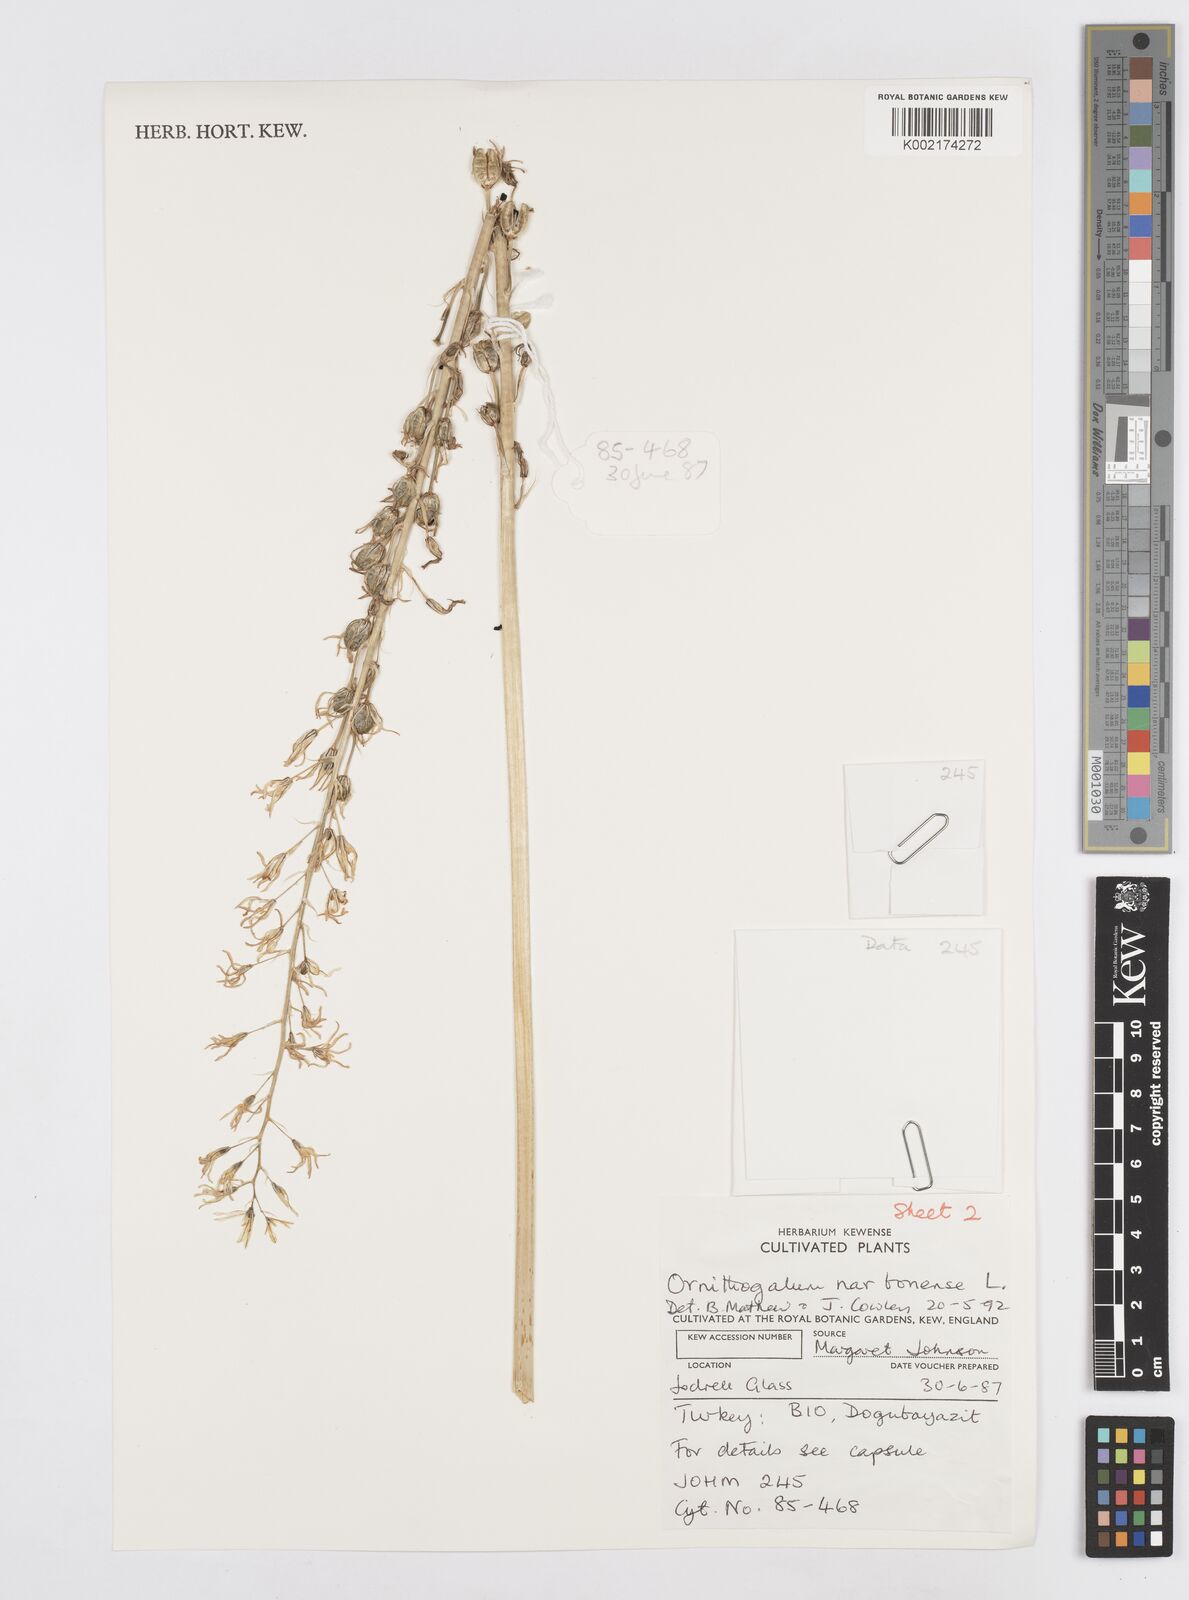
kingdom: Plantae
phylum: Tracheophyta
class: Liliopsida
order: Asparagales
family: Asparagaceae
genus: Ornithogalum
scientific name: Ornithogalum narbonense
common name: Bath-asparagus
